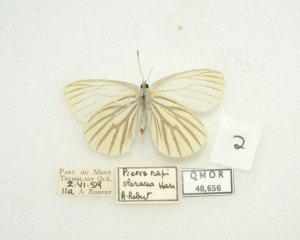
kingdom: Animalia
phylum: Arthropoda
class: Insecta
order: Lepidoptera
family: Pieridae
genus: Pieris
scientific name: Pieris oleracea
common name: Mustard White
